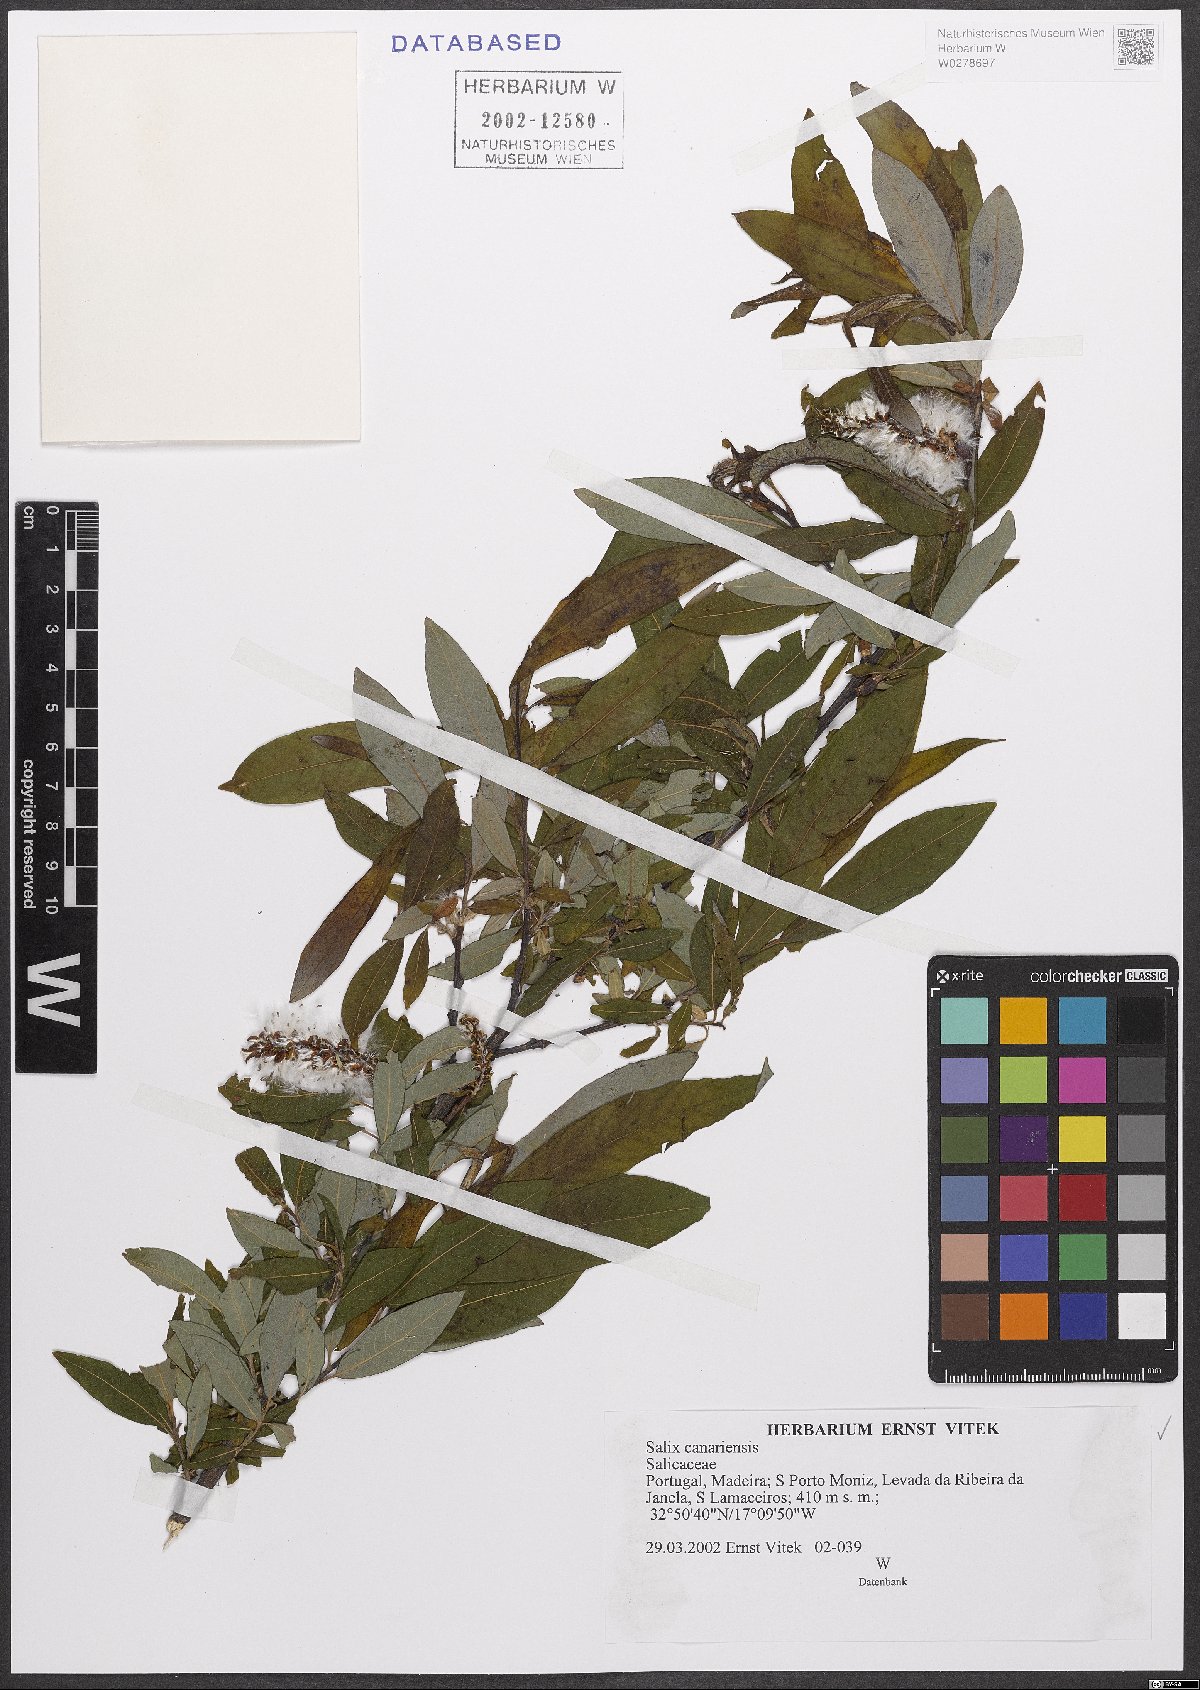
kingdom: Plantae
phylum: Tracheophyta
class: Magnoliopsida
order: Malpighiales
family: Salicaceae
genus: Salix
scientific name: Salix canariensis
